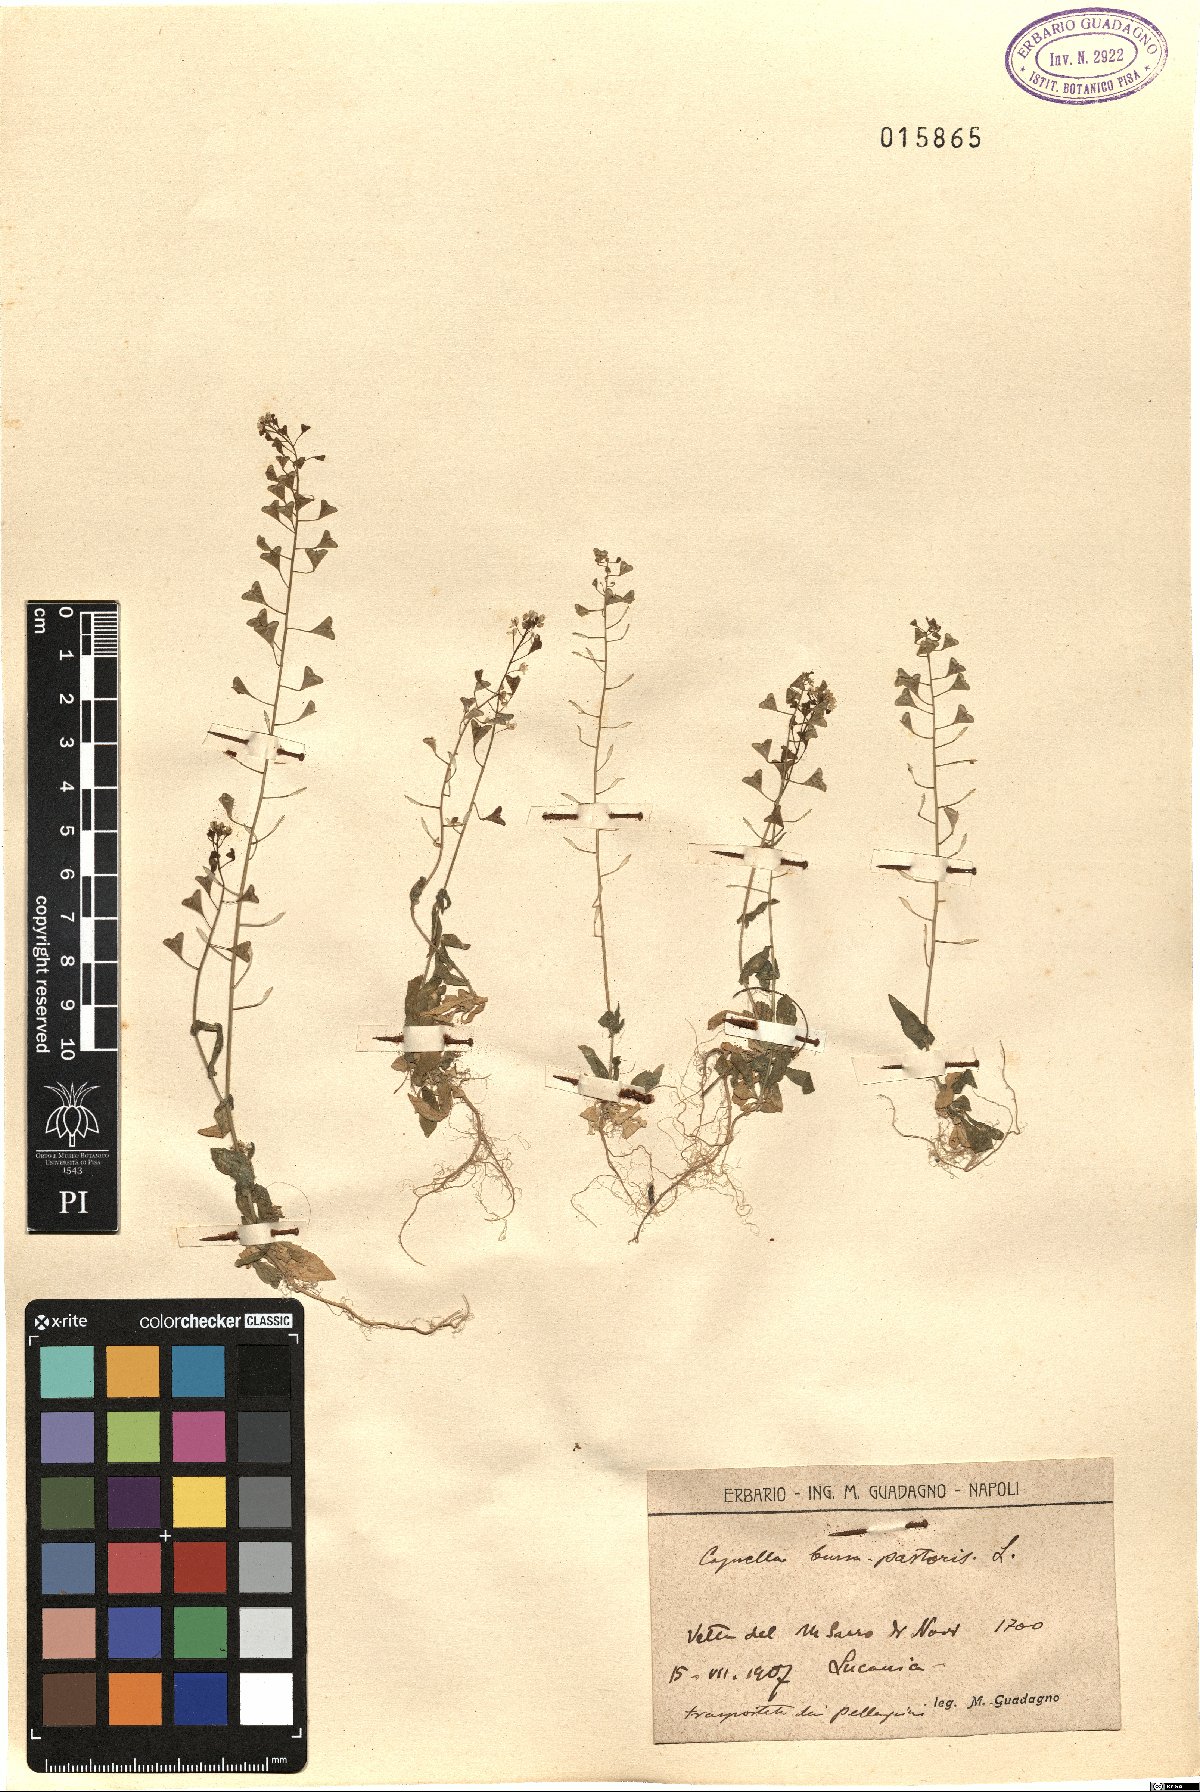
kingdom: Plantae
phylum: Tracheophyta
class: Magnoliopsida
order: Brassicales
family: Brassicaceae
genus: Capsella
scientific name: Capsella bursa-pastoris
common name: Shepherd's purse
